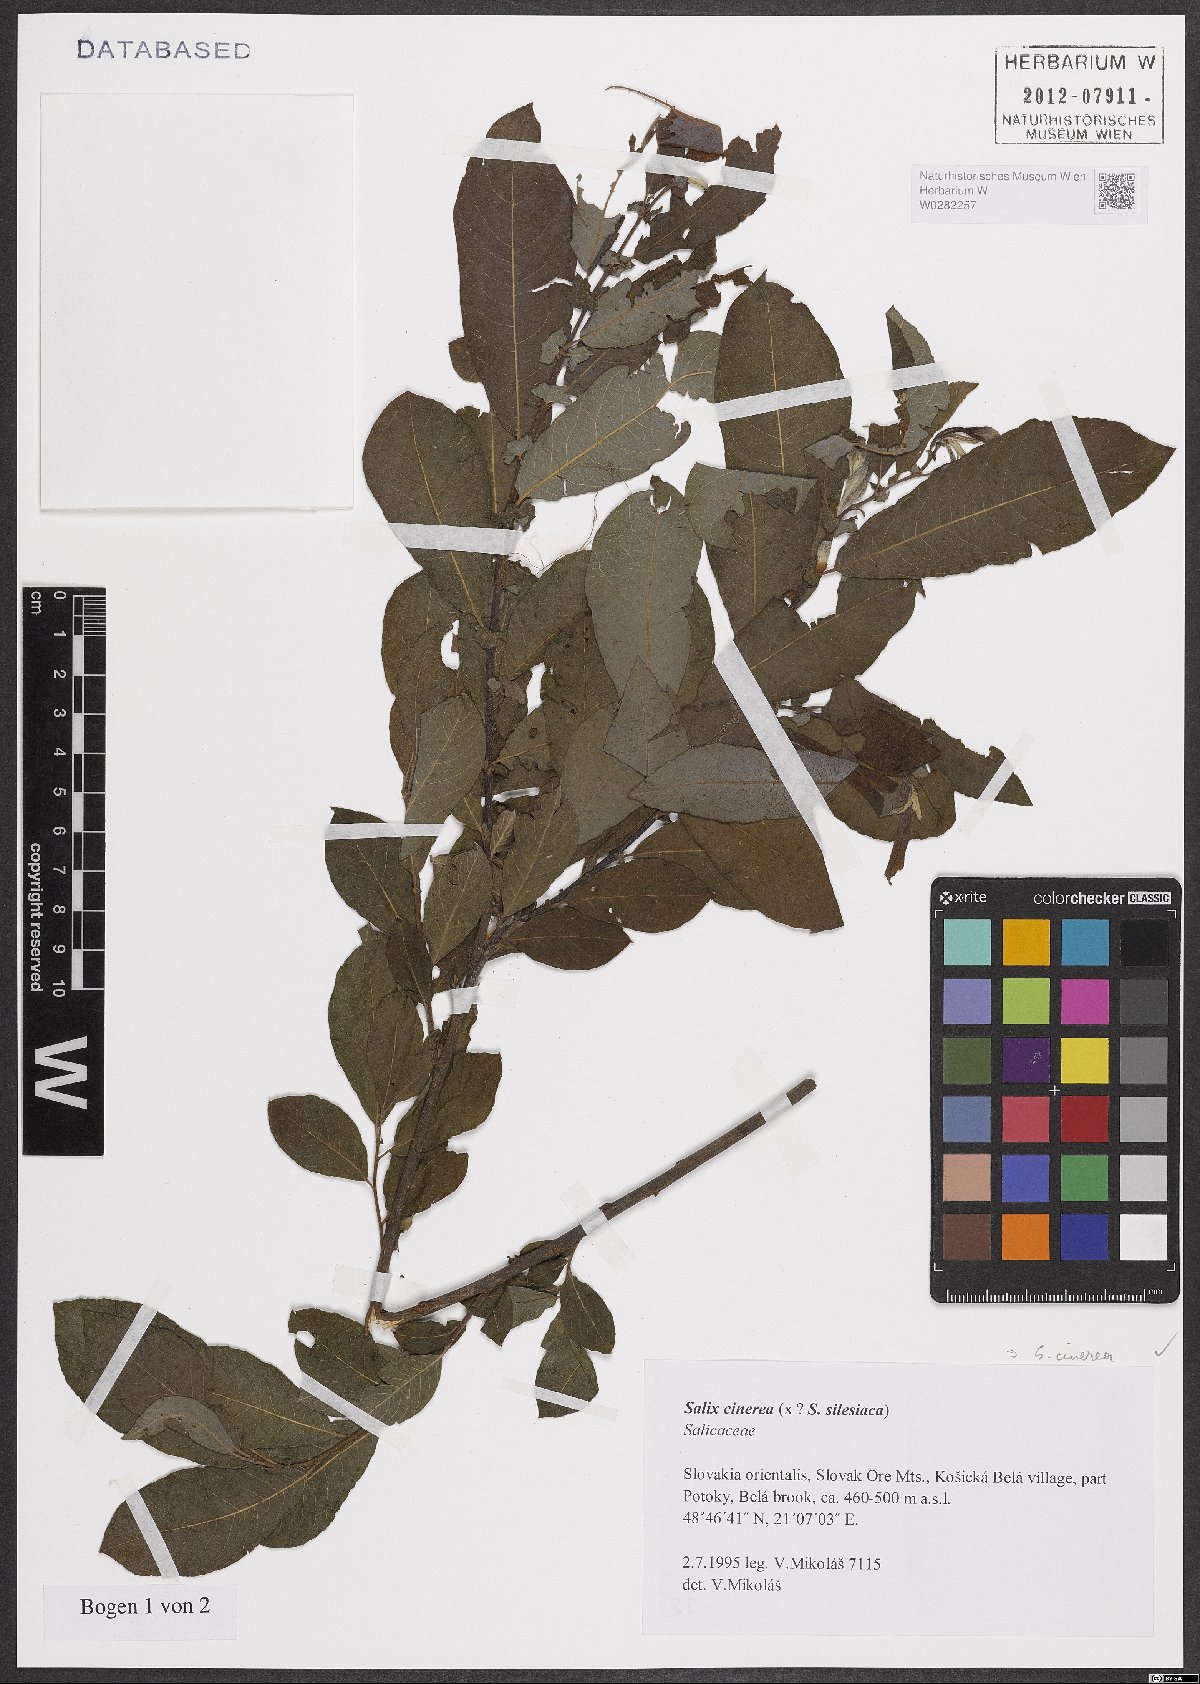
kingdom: Plantae
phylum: Tracheophyta
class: Magnoliopsida
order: Malpighiales
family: Salicaceae
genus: Salix
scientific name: Salix cinerea
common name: Common sallow
